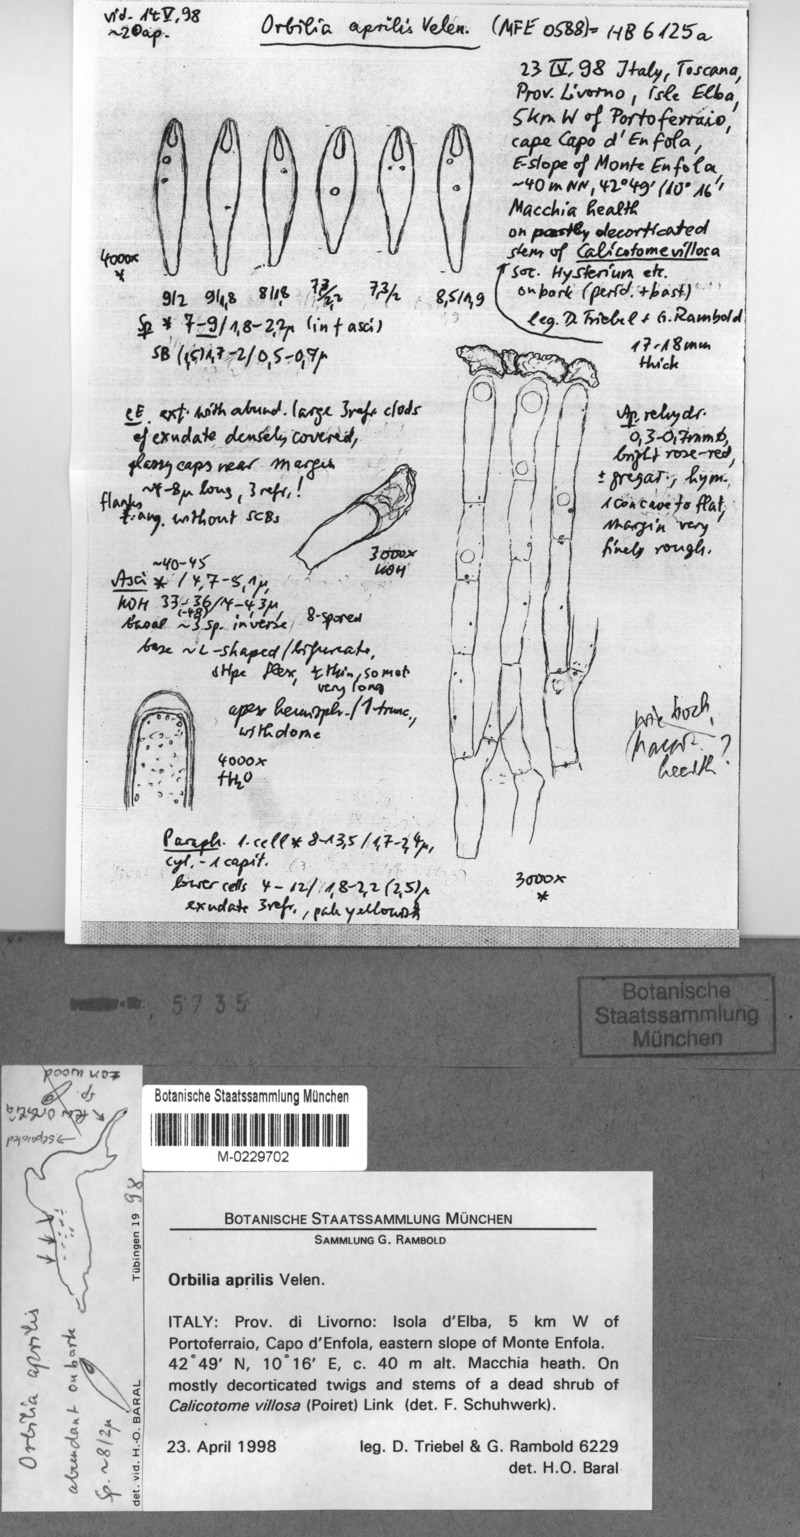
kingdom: Fungi
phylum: Ascomycota
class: Orbiliomycetes
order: Orbiliales
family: Orbiliaceae
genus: Orbilia
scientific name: Orbilia aprilis
